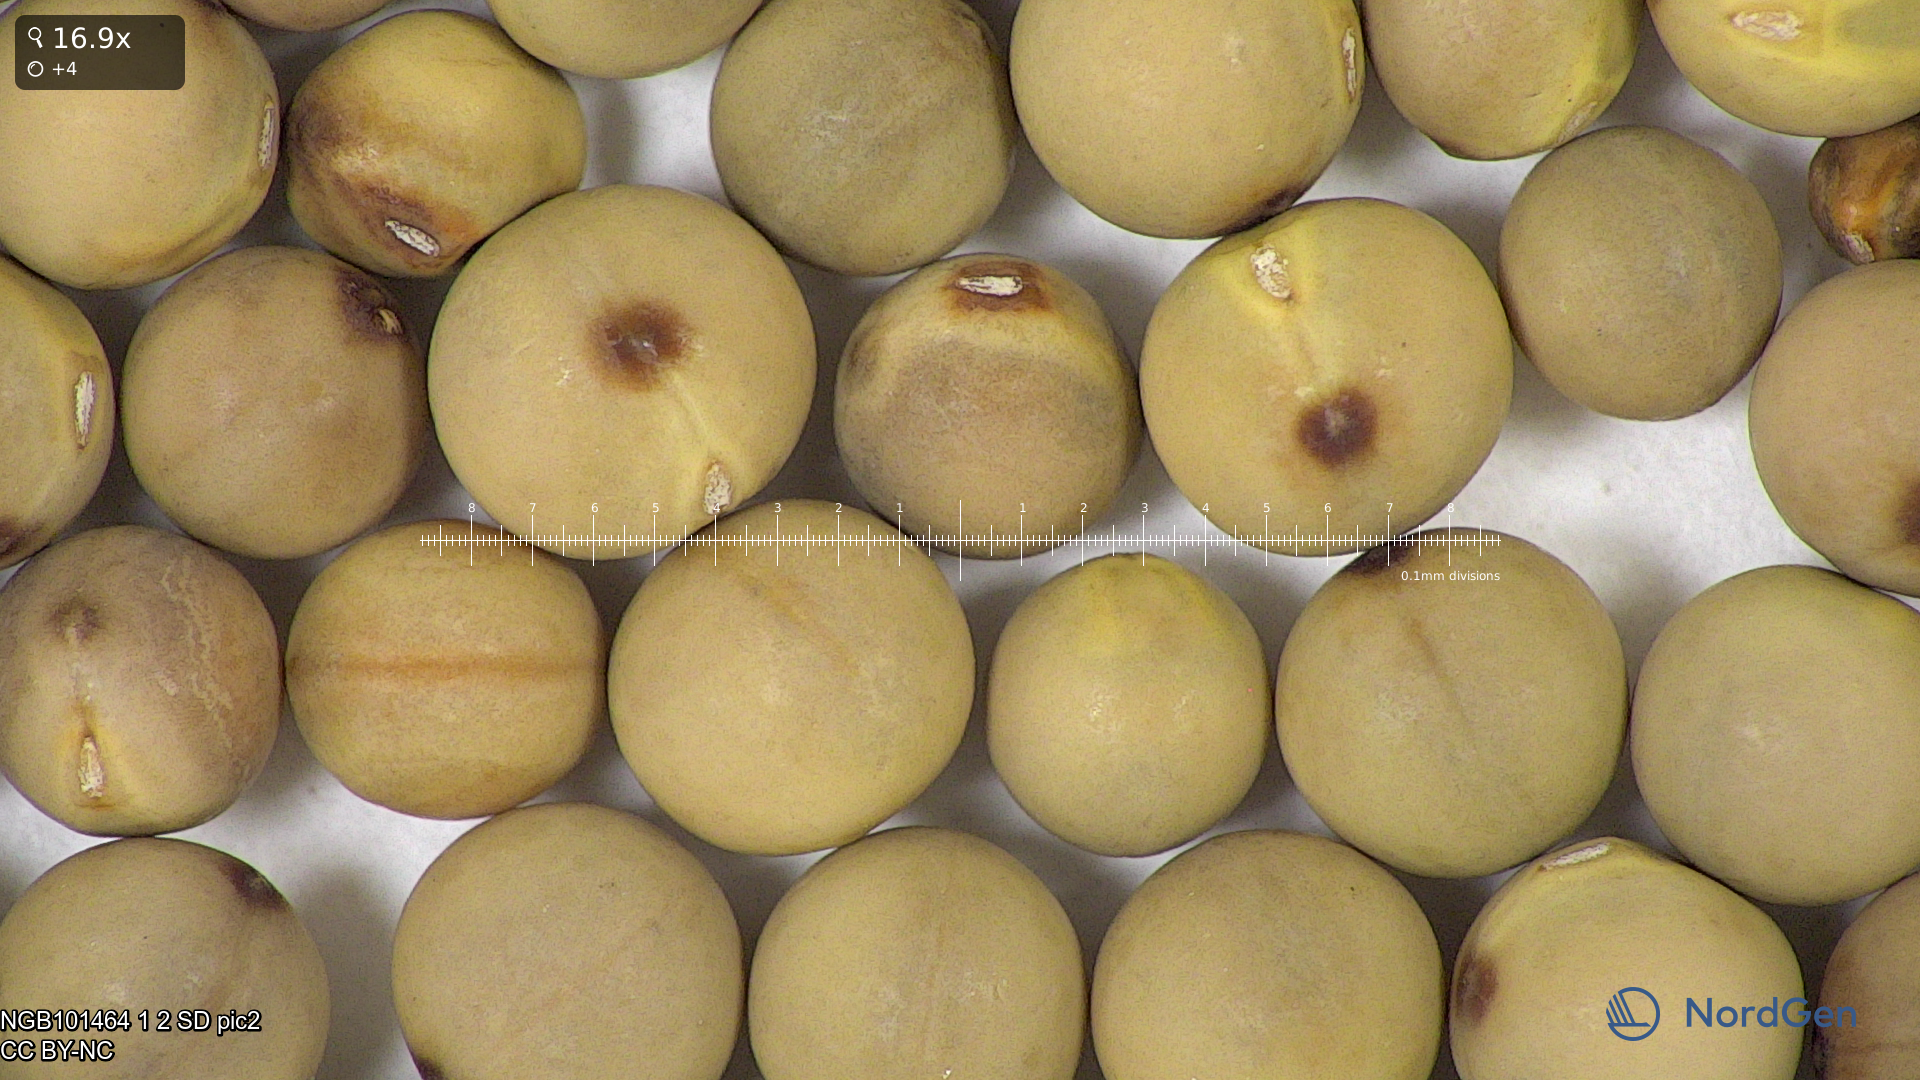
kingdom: Plantae
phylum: Tracheophyta
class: Magnoliopsida
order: Fabales
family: Fabaceae
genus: Lathyrus
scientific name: Lathyrus oleraceus
